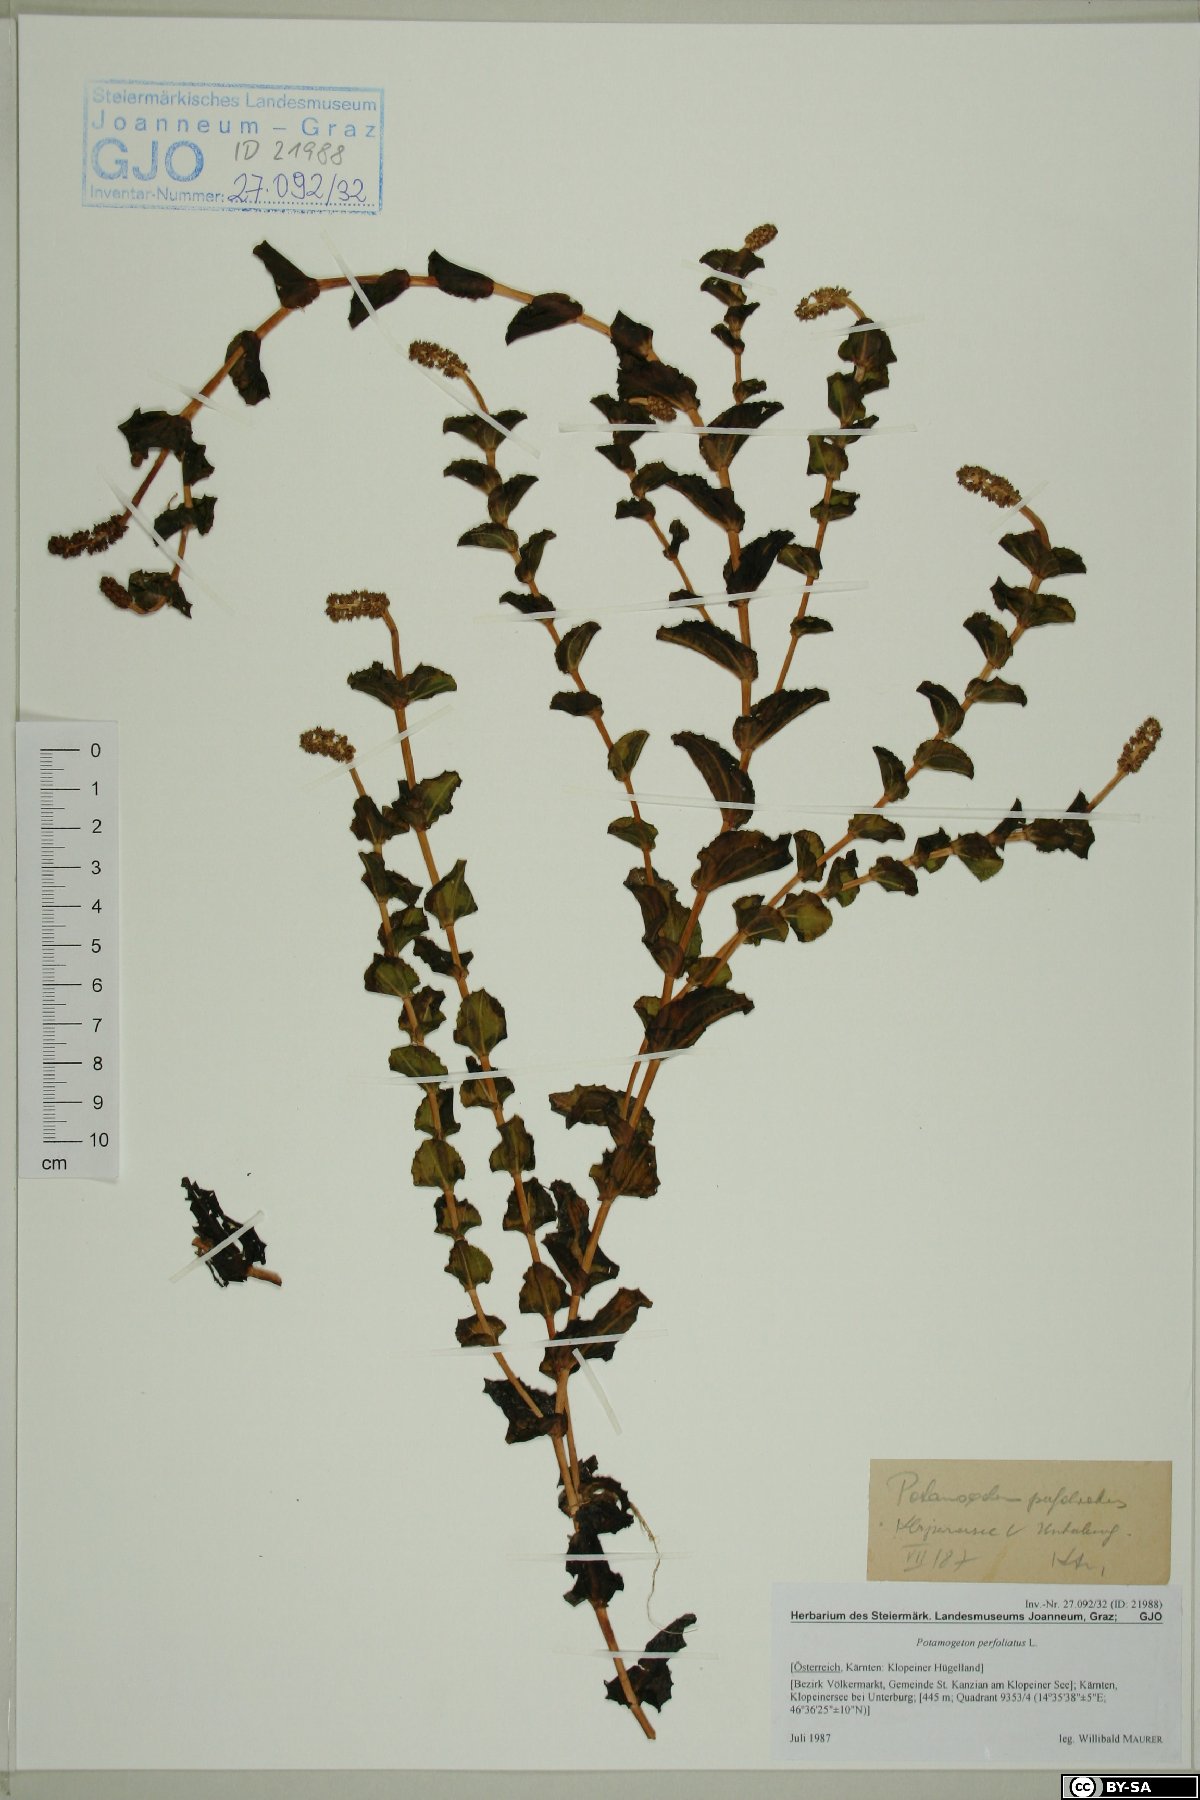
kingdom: Plantae
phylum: Tracheophyta
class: Liliopsida
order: Alismatales
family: Potamogetonaceae
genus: Potamogeton
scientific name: Potamogeton perfoliatus
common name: Perfoliate pondweed
